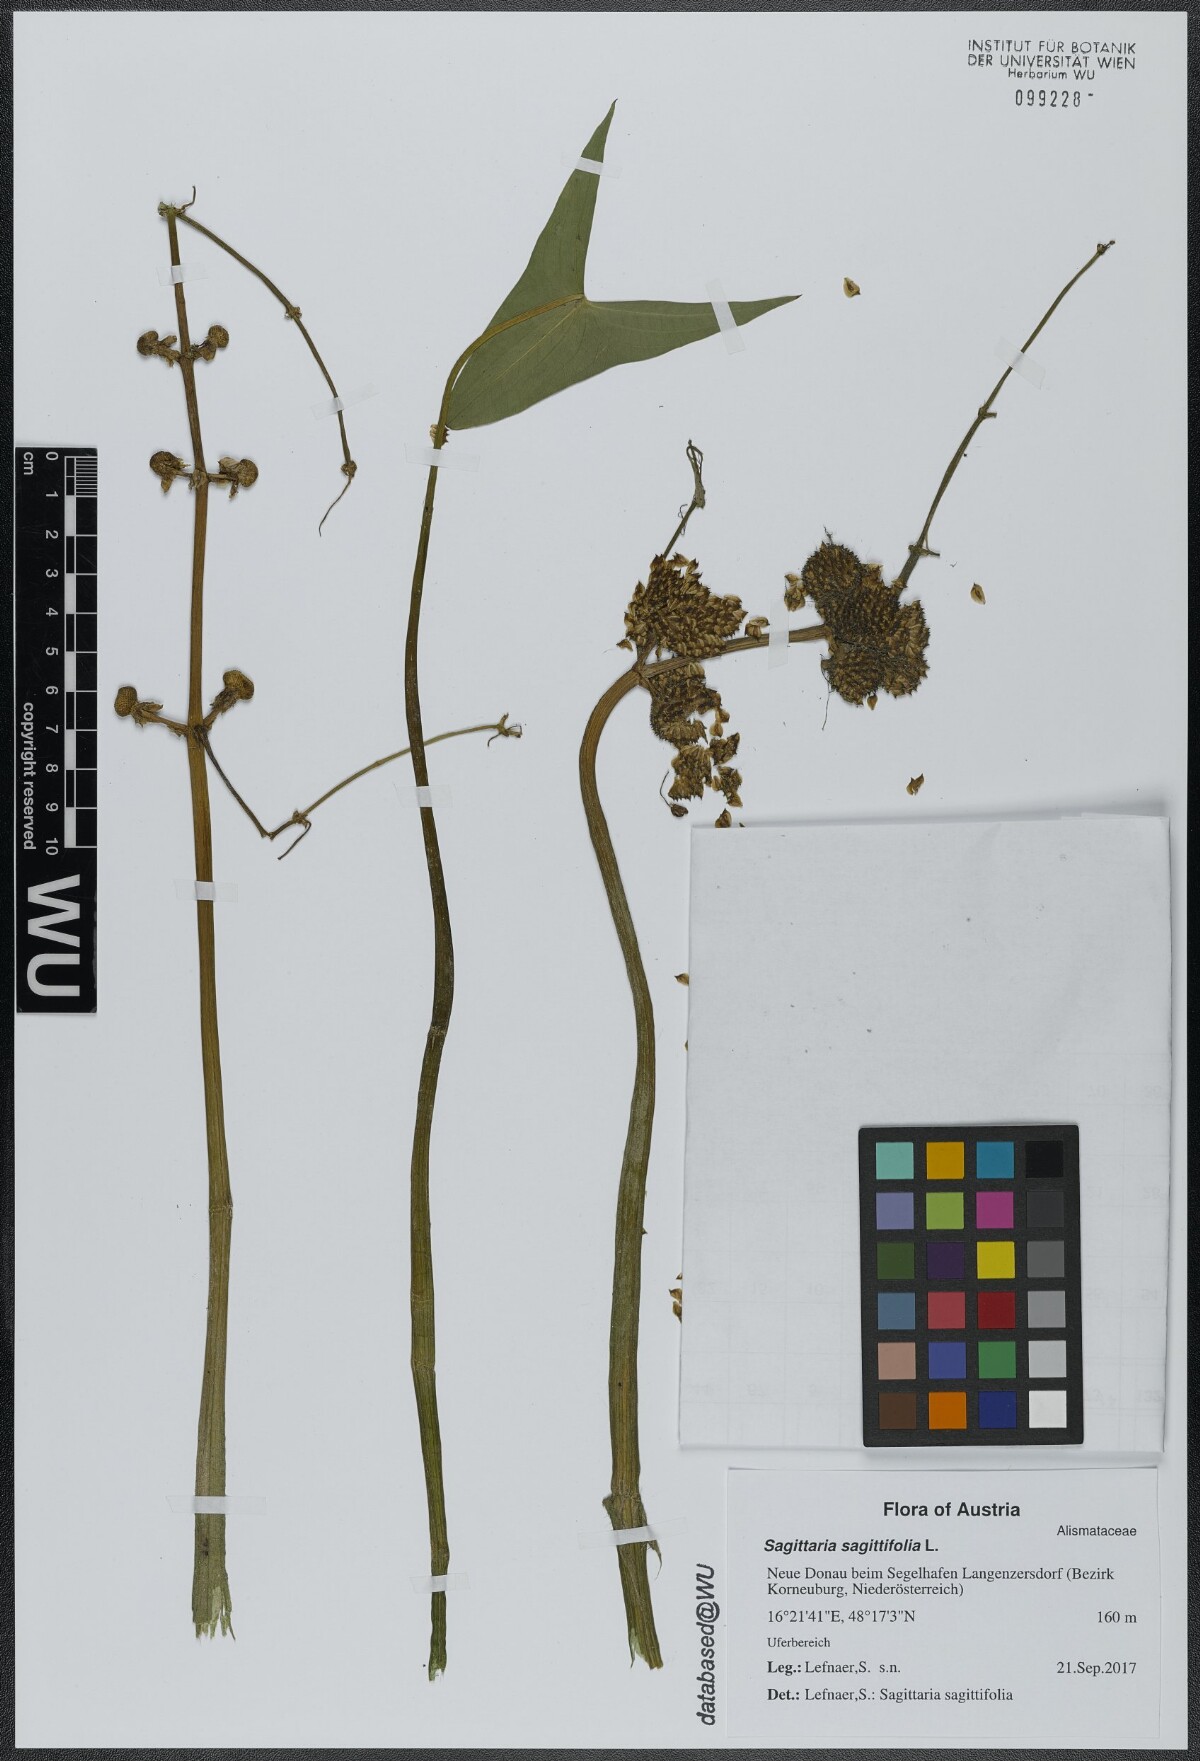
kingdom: Plantae
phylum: Tracheophyta
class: Liliopsida
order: Alismatales
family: Alismataceae
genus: Sagittaria
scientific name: Sagittaria sagittifolia
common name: Arrowhead
